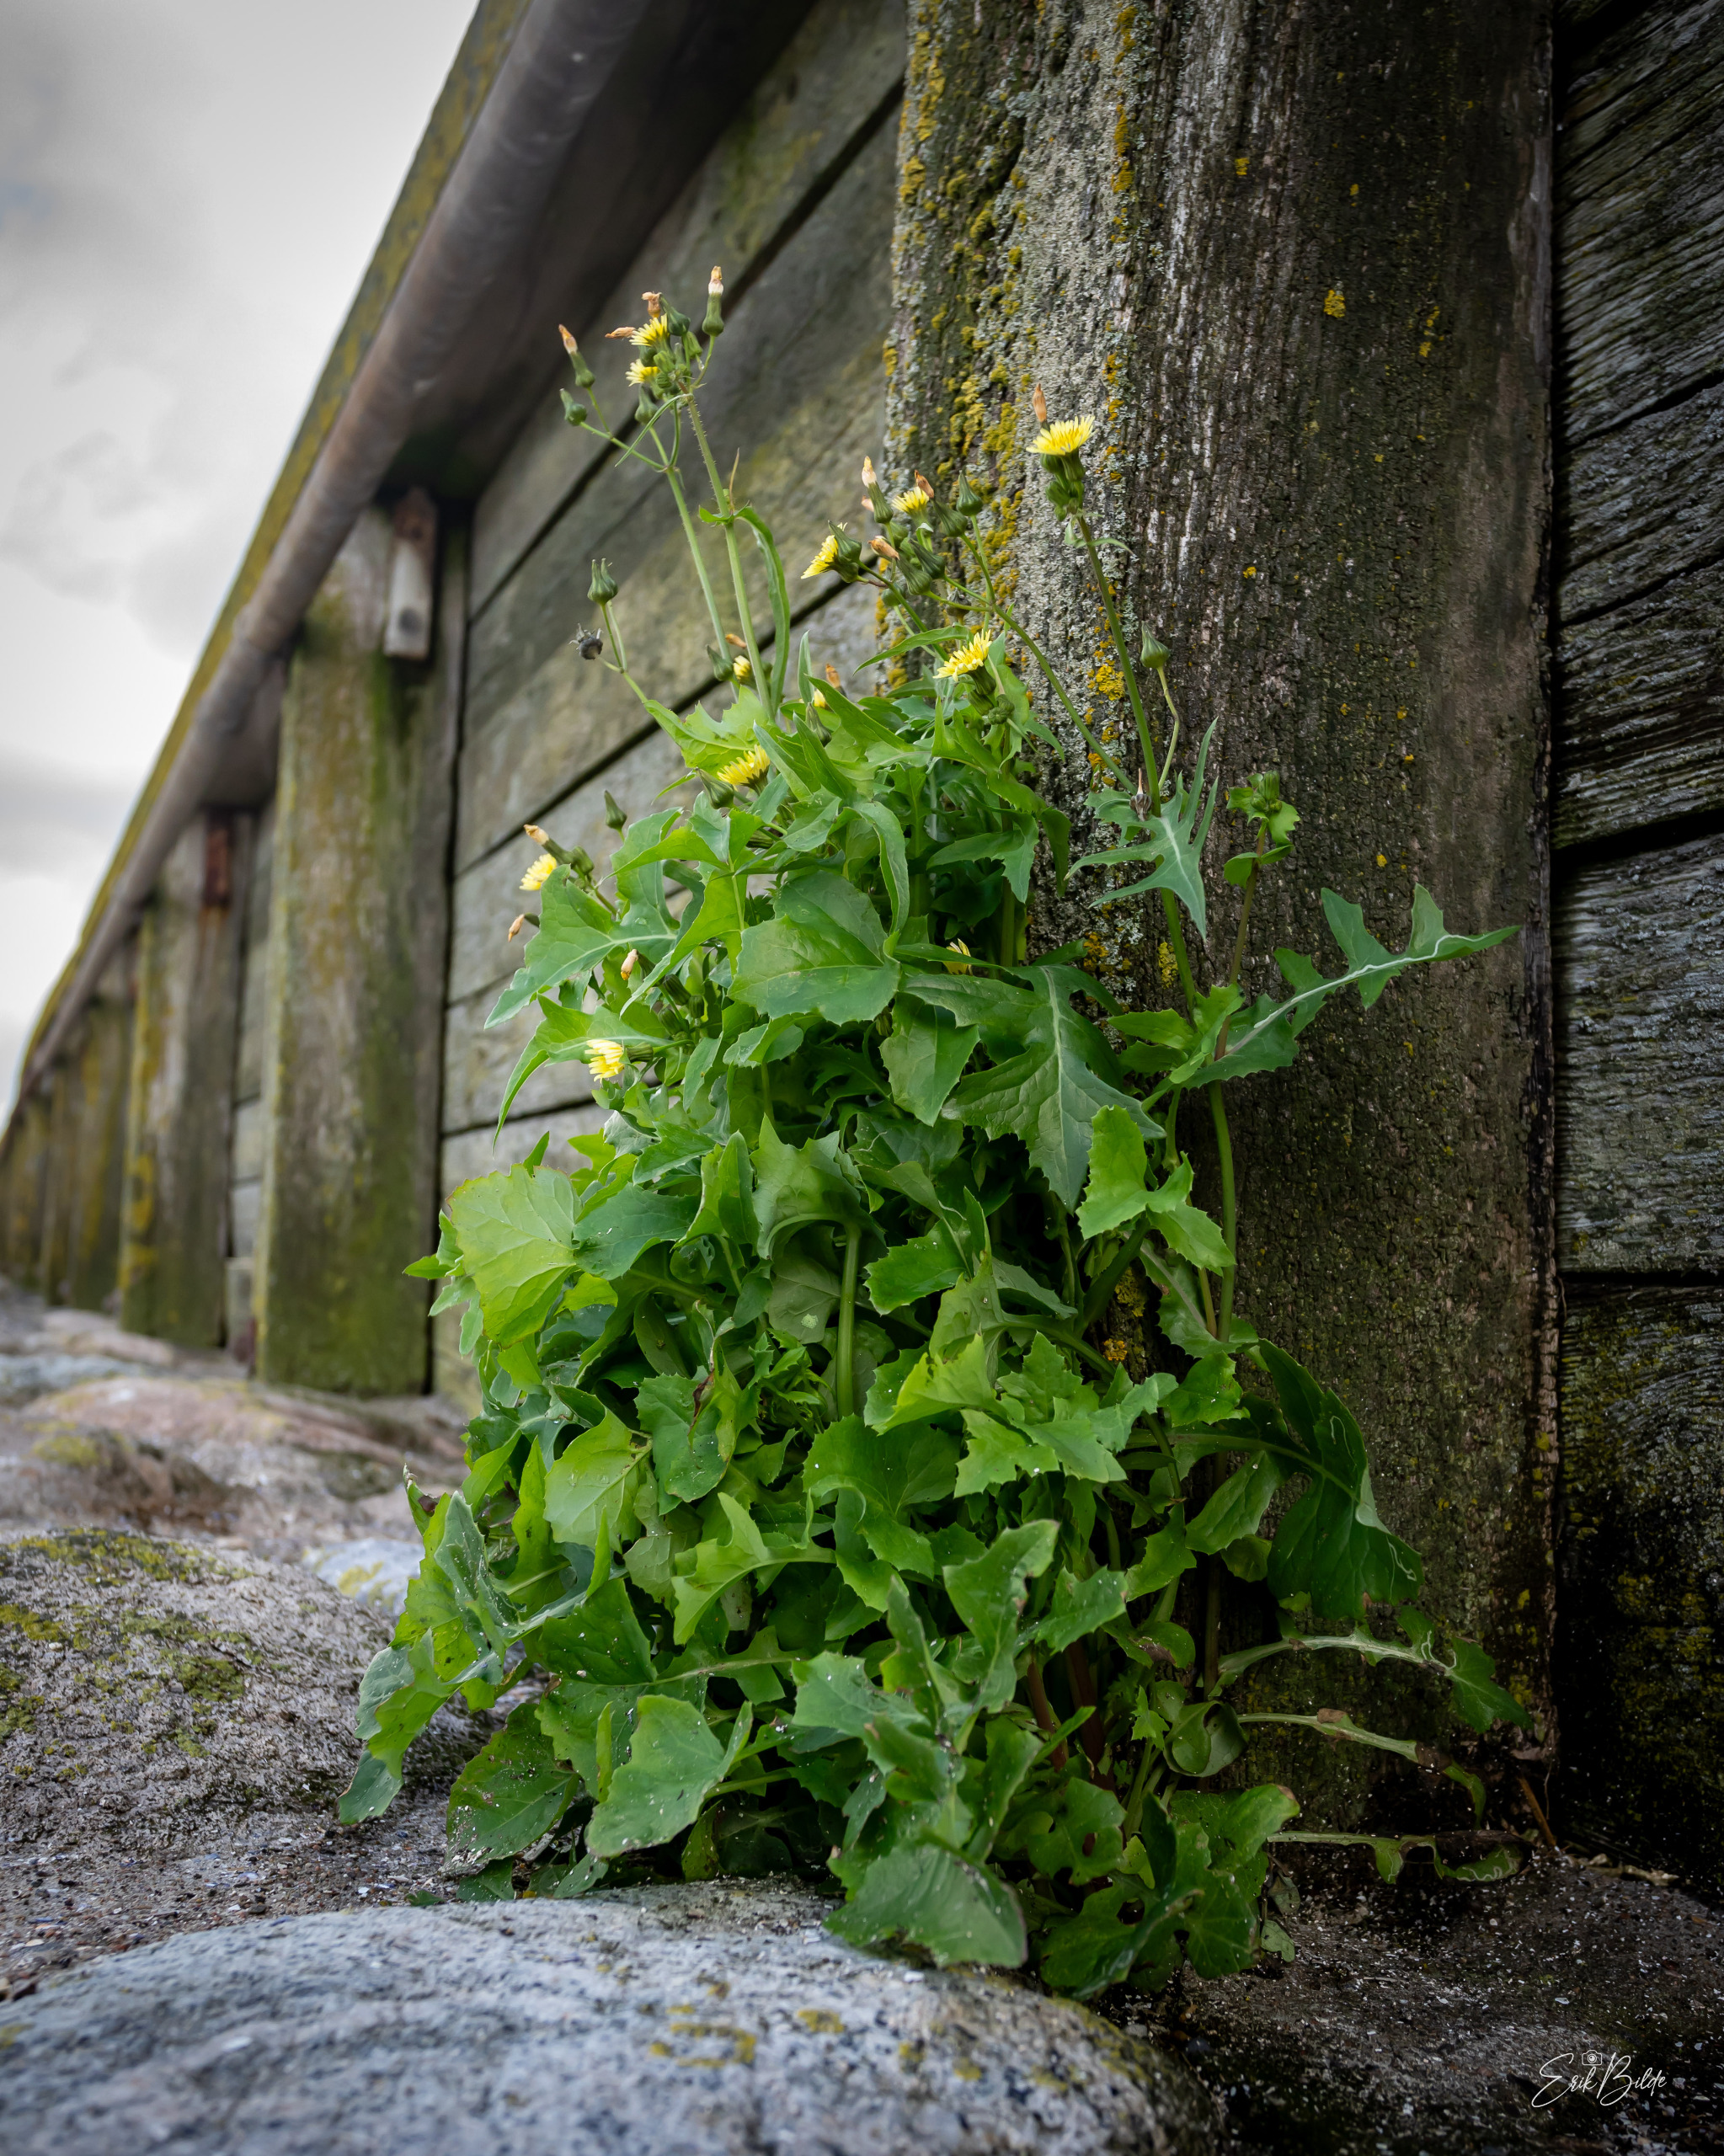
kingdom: Plantae
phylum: Tracheophyta
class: Magnoliopsida
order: Asterales
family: Asteraceae
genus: Sonchus
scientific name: Sonchus oleraceus
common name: Almindelig svinemælk
